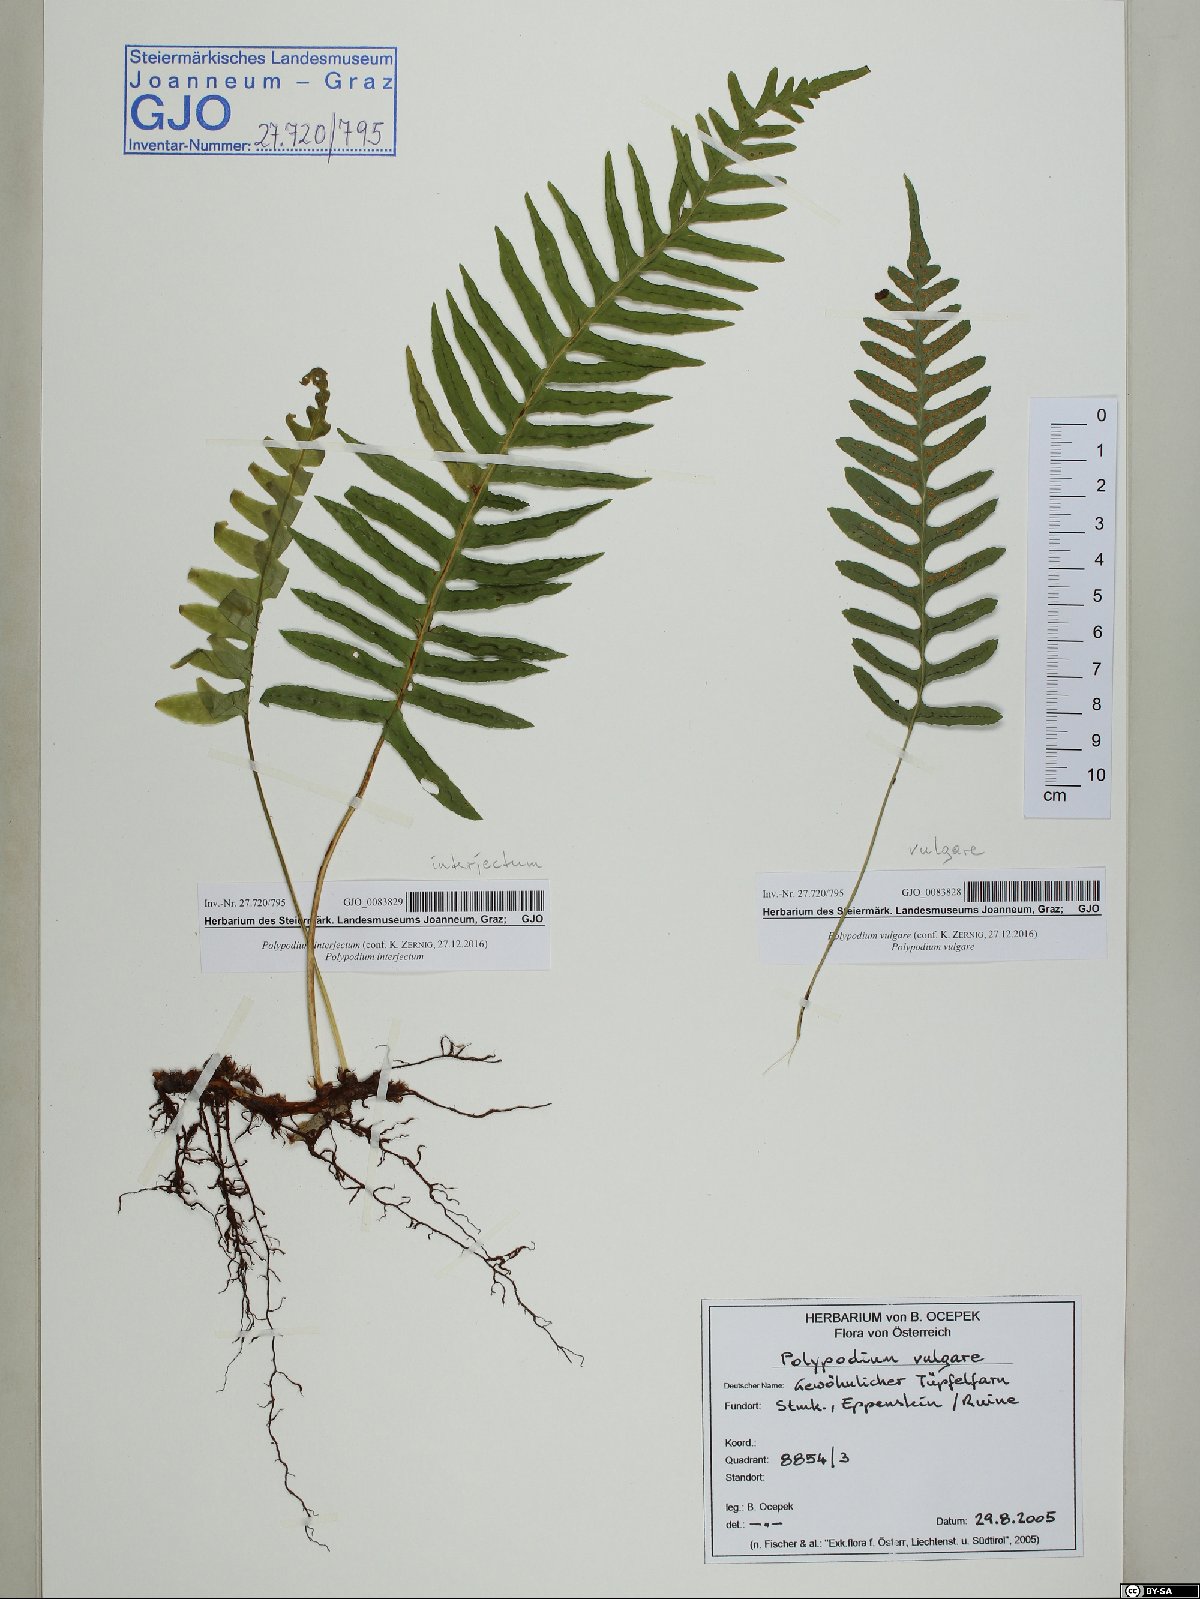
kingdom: Plantae
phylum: Tracheophyta
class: Polypodiopsida
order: Polypodiales
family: Polypodiaceae
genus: Polypodium
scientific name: Polypodium vulgare
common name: Common polypody
